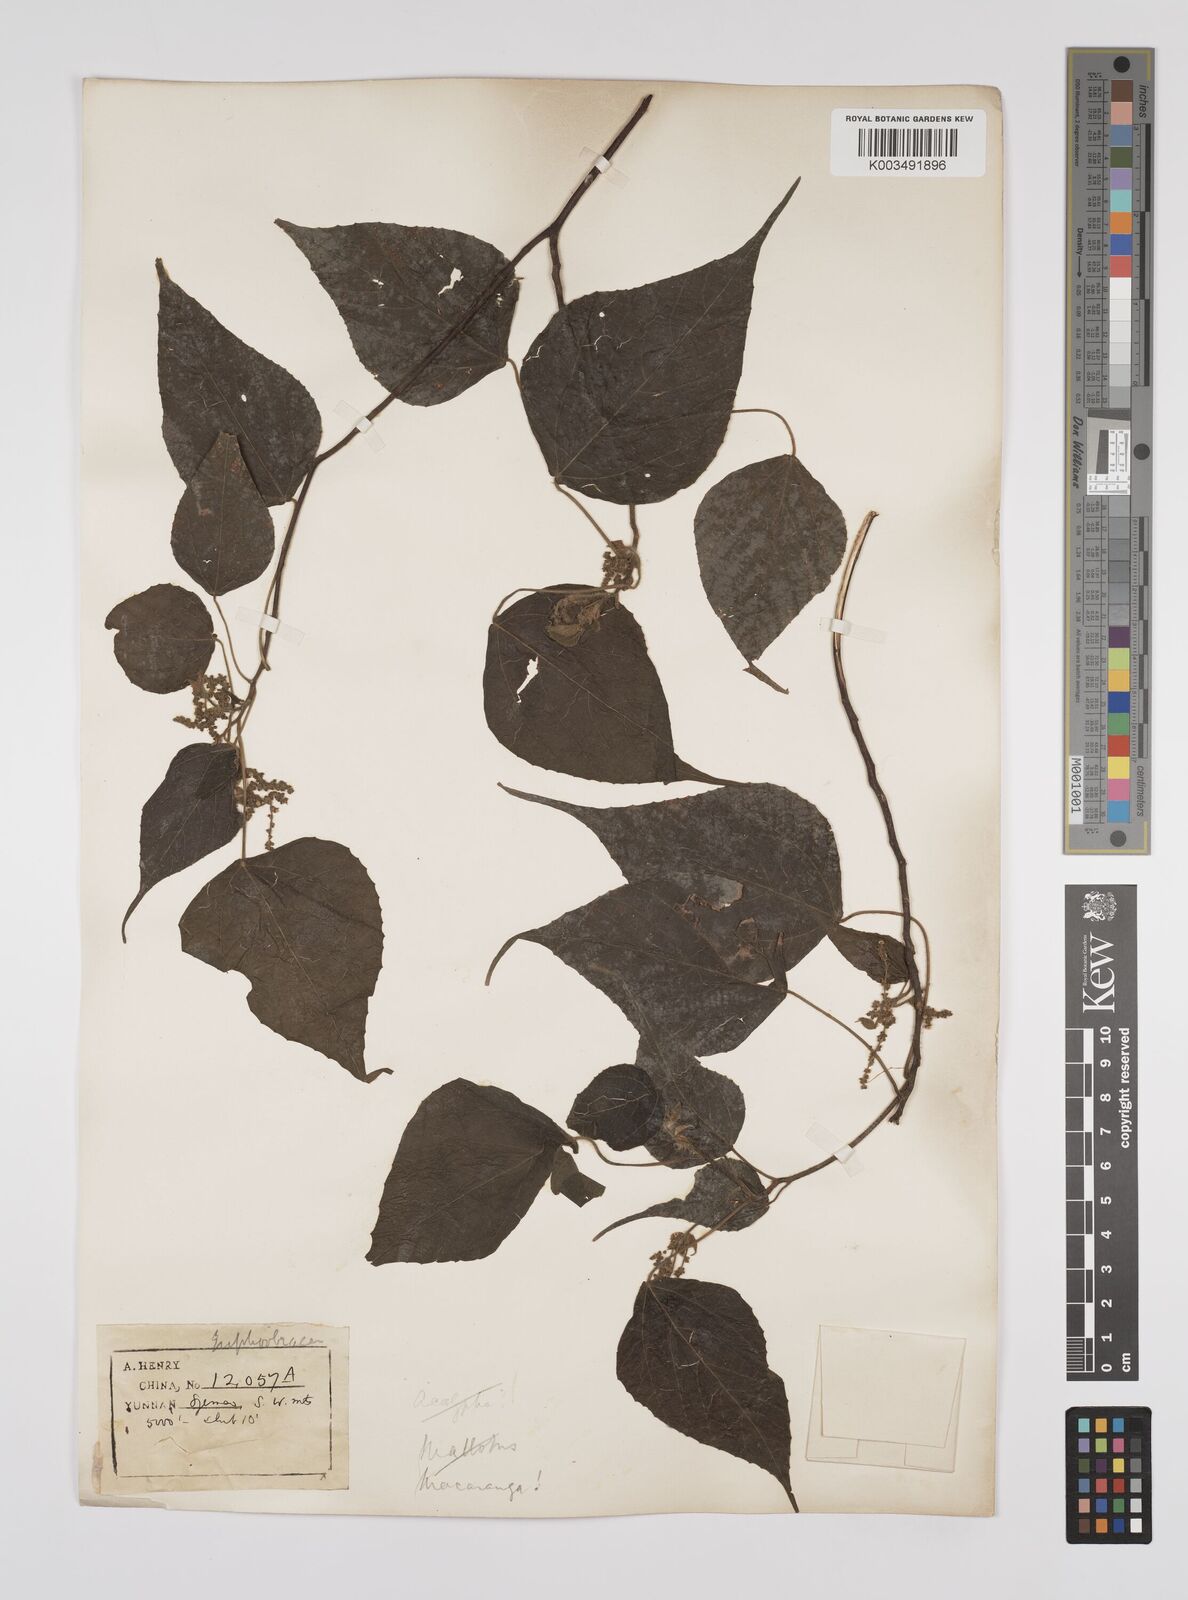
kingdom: Plantae
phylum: Tracheophyta
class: Magnoliopsida
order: Malpighiales
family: Euphorbiaceae
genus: Macaranga
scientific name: Macaranga kurzii
